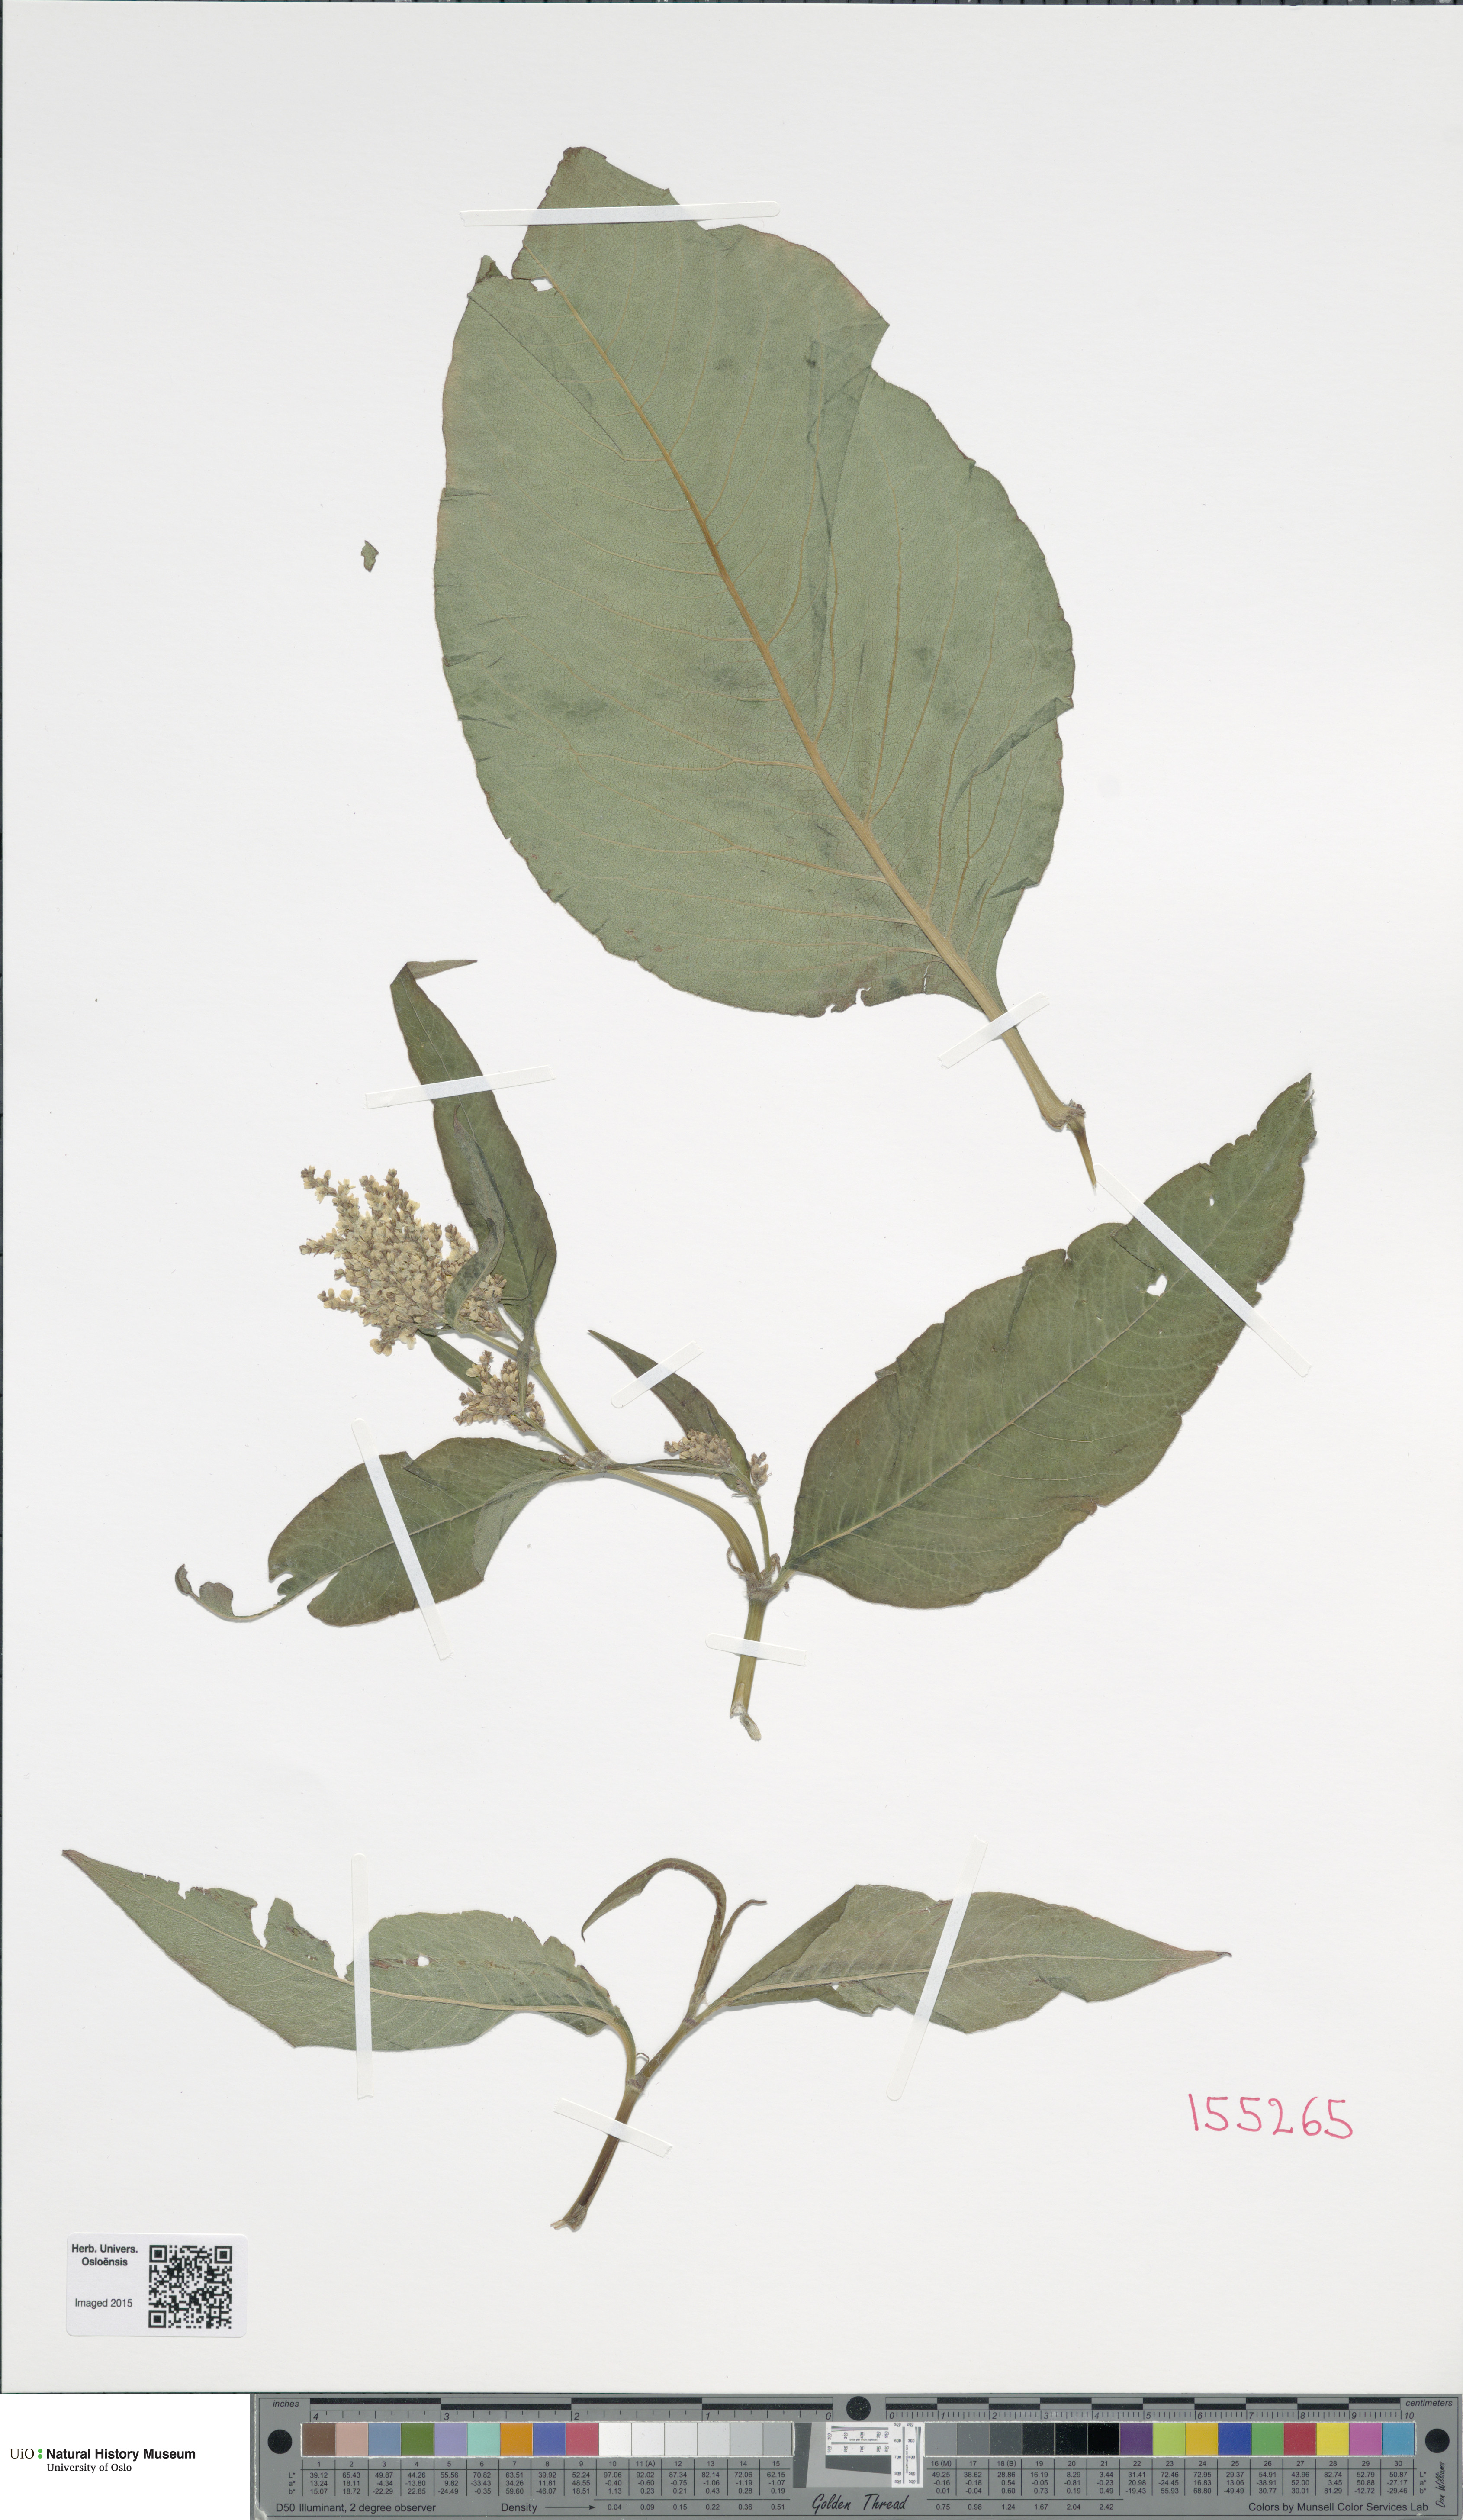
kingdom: Plantae
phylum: Tracheophyta
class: Magnoliopsida
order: Caryophyllales
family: Polygonaceae
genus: Koenigia
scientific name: Koenigia
